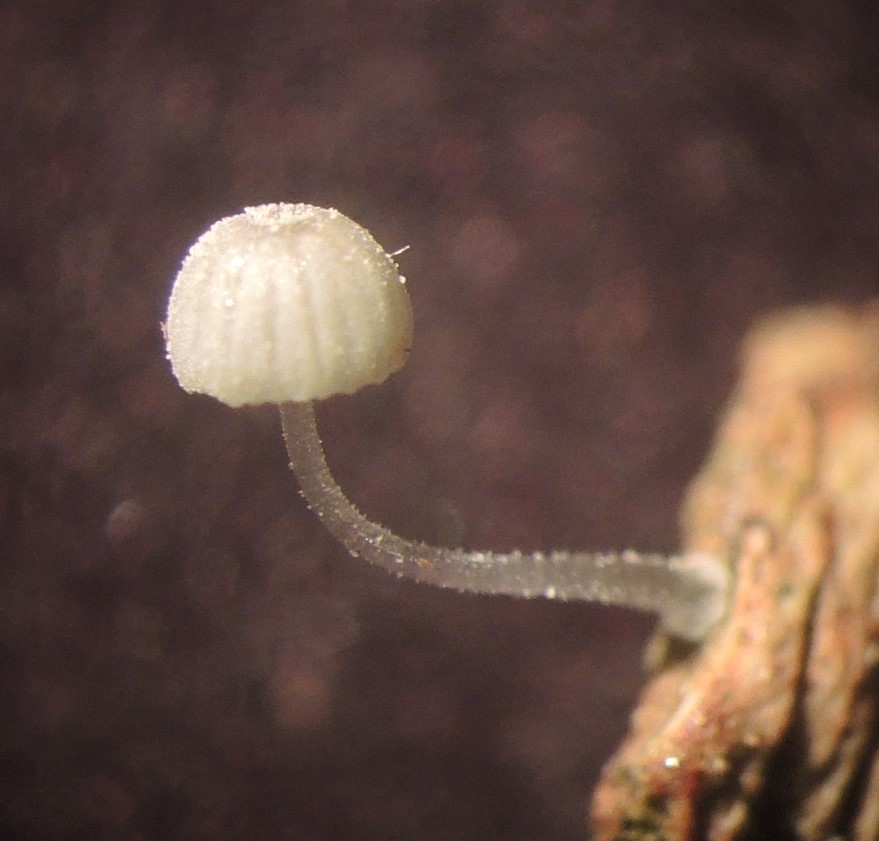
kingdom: Fungi
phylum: Basidiomycota
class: Agaricomycetes
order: Agaricales
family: Mycenaceae
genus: Mycena
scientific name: Mycena tenerrima
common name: pudret huesvamp
